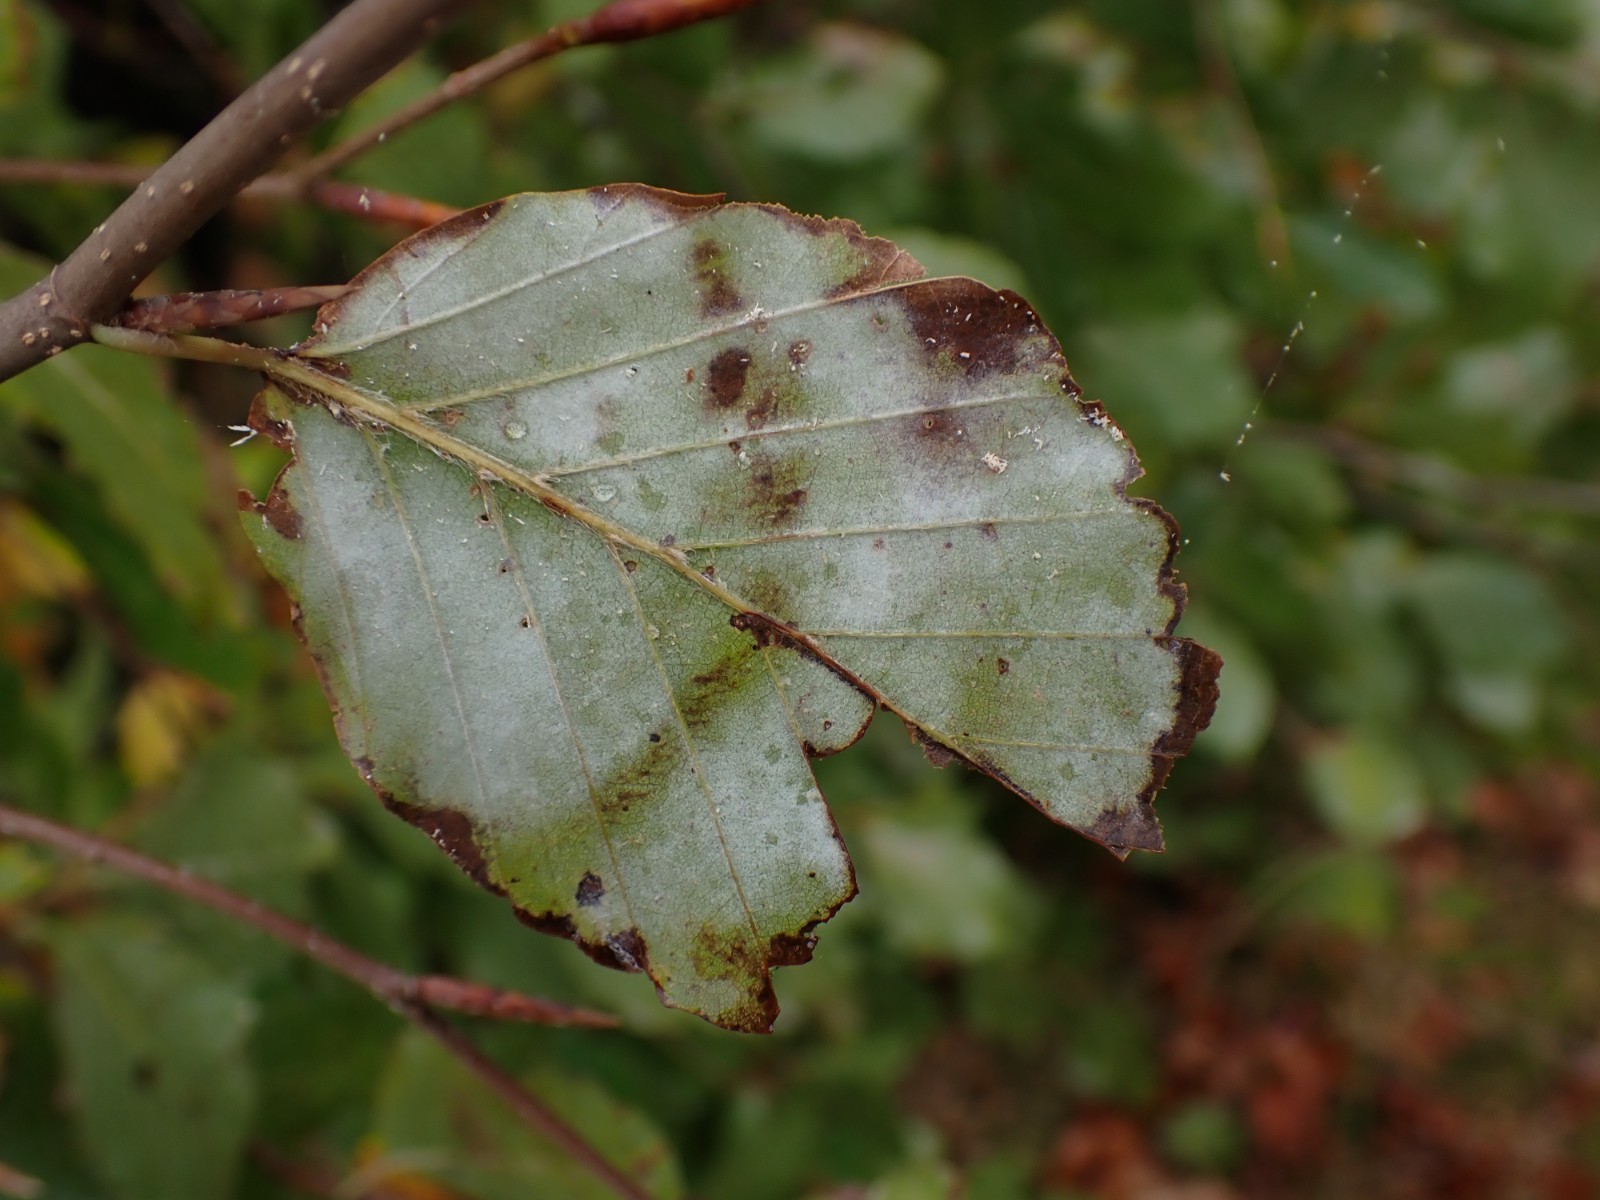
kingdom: Fungi
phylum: Ascomycota
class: Leotiomycetes
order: Helotiales
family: Erysiphaceae
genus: Phyllactinia
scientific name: Phyllactinia orbicularis
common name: bøge-meldug
